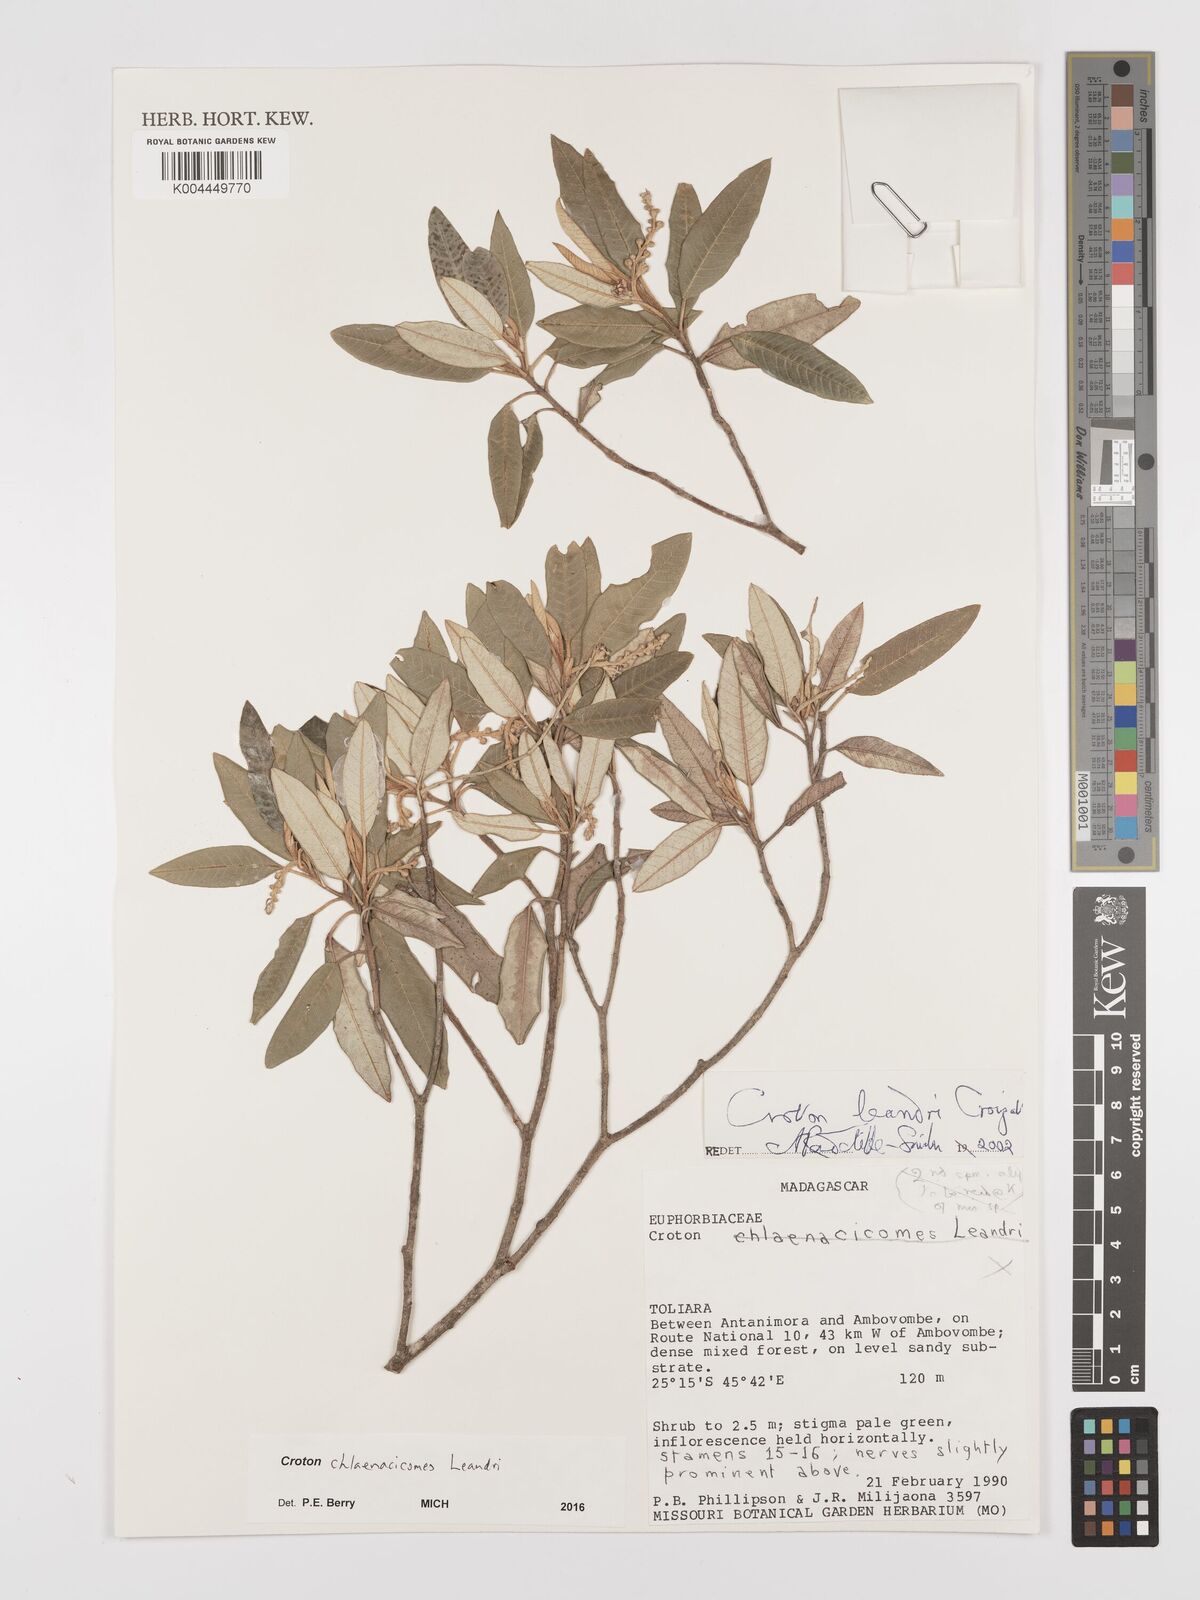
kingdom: Plantae
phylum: Tracheophyta
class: Magnoliopsida
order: Malpighiales
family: Euphorbiaceae
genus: Croton
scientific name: Croton chlaenacicomes
